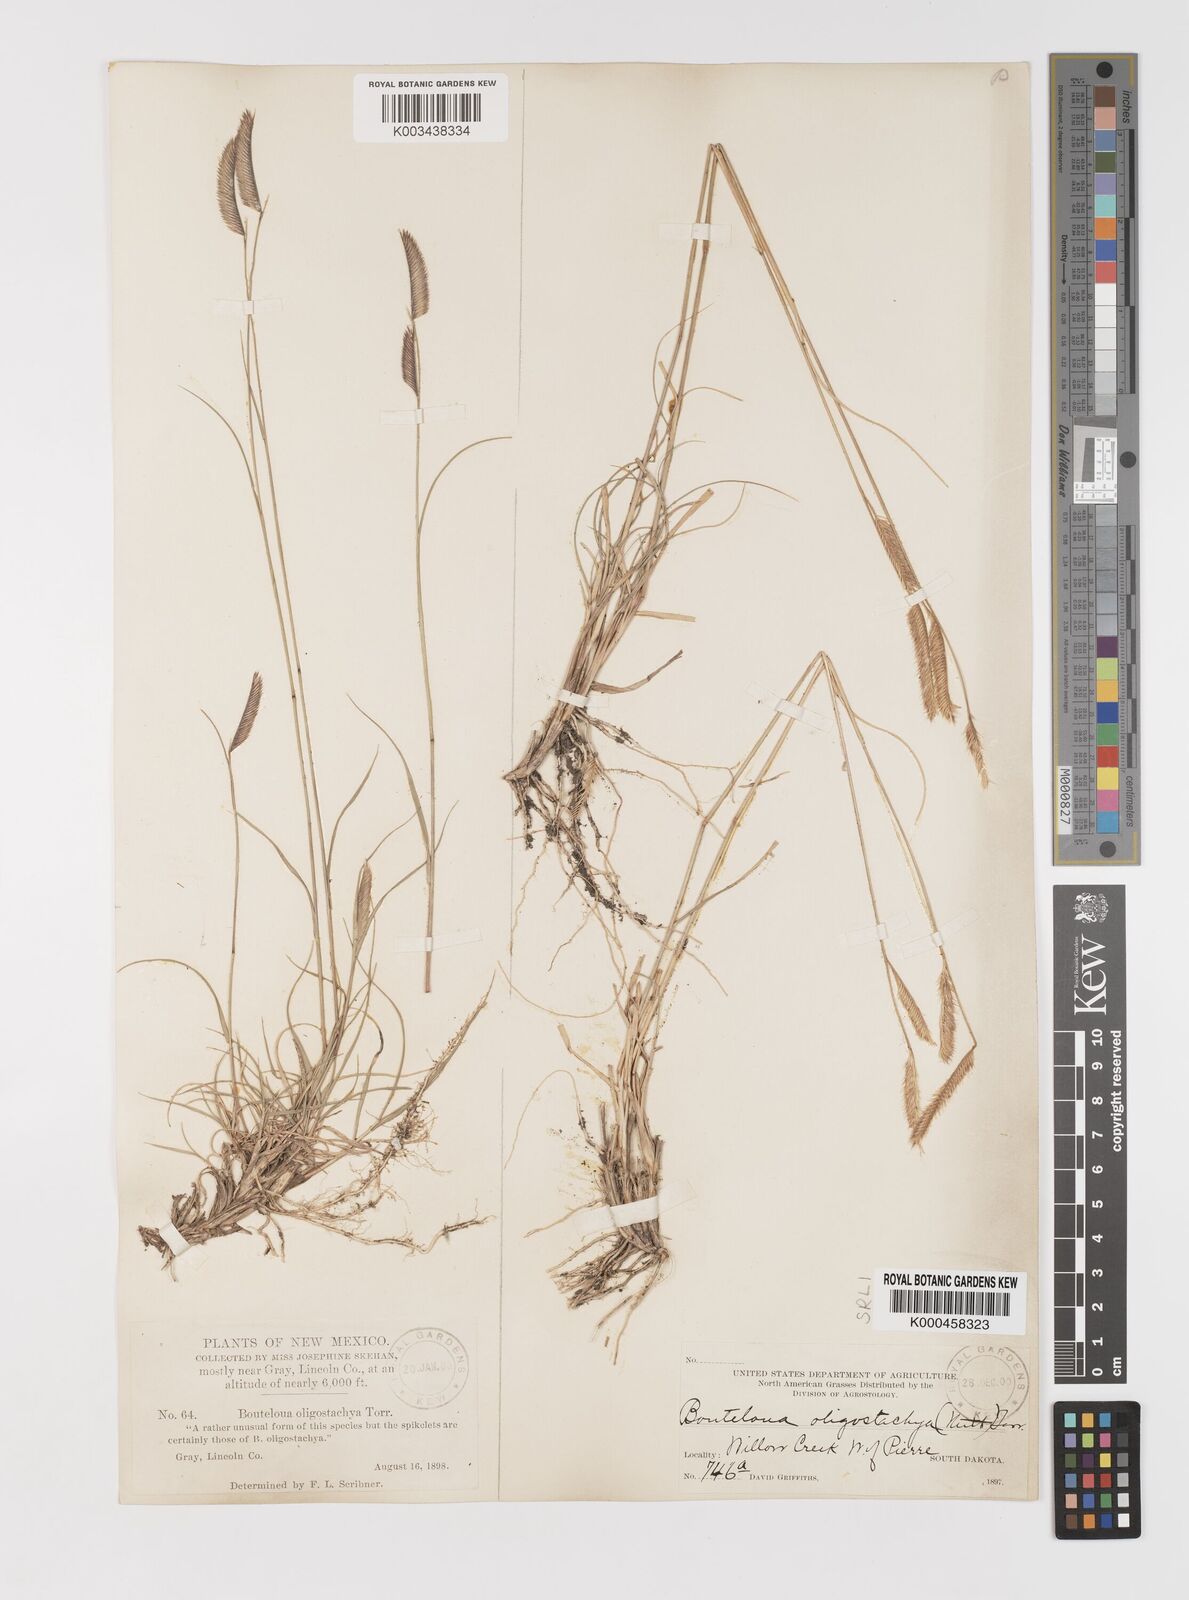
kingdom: Plantae
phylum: Tracheophyta
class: Liliopsida
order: Poales
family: Poaceae
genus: Bouteloua
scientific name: Bouteloua
